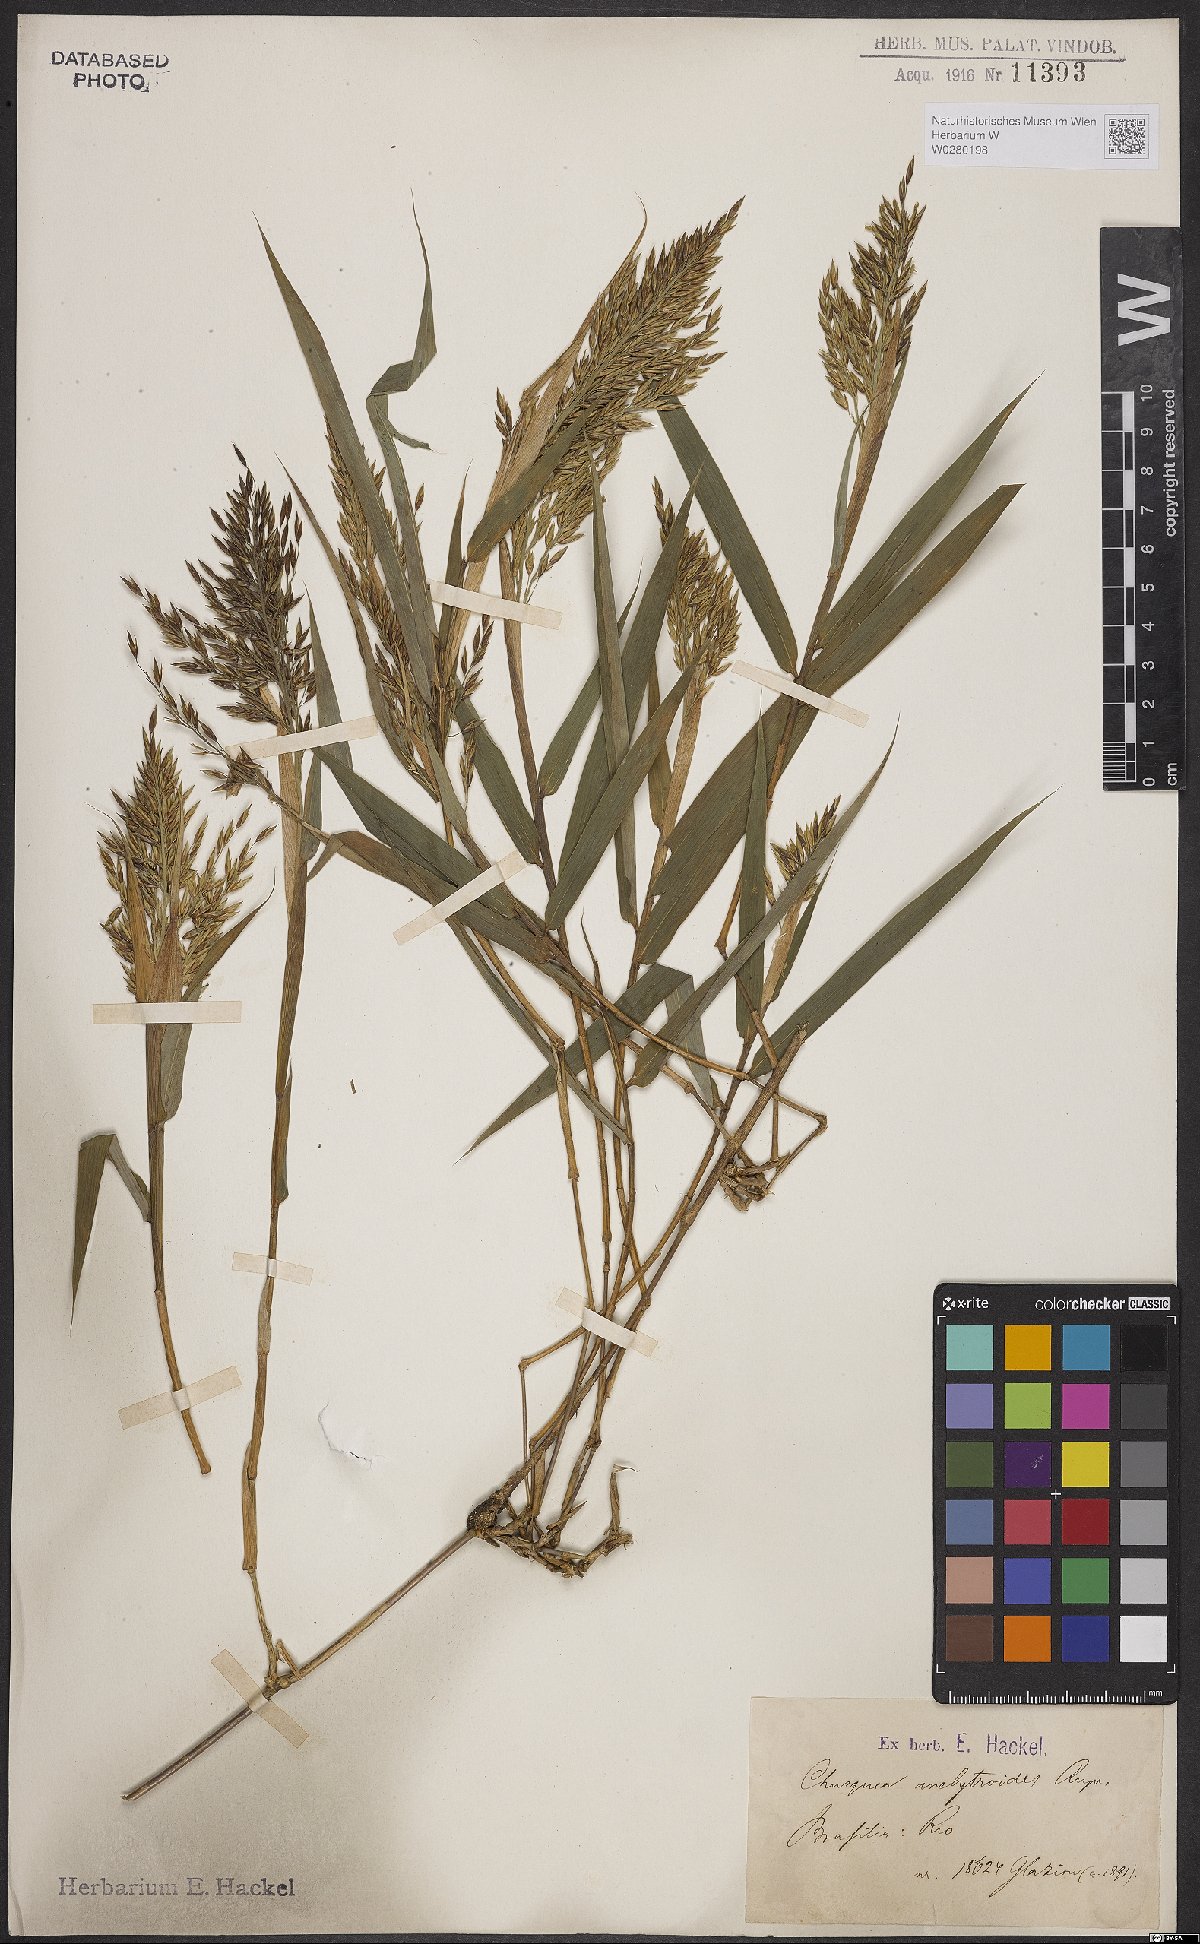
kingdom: Plantae
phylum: Tracheophyta
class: Liliopsida
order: Poales
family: Poaceae
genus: Chusquea
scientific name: Chusquea anelythroides
